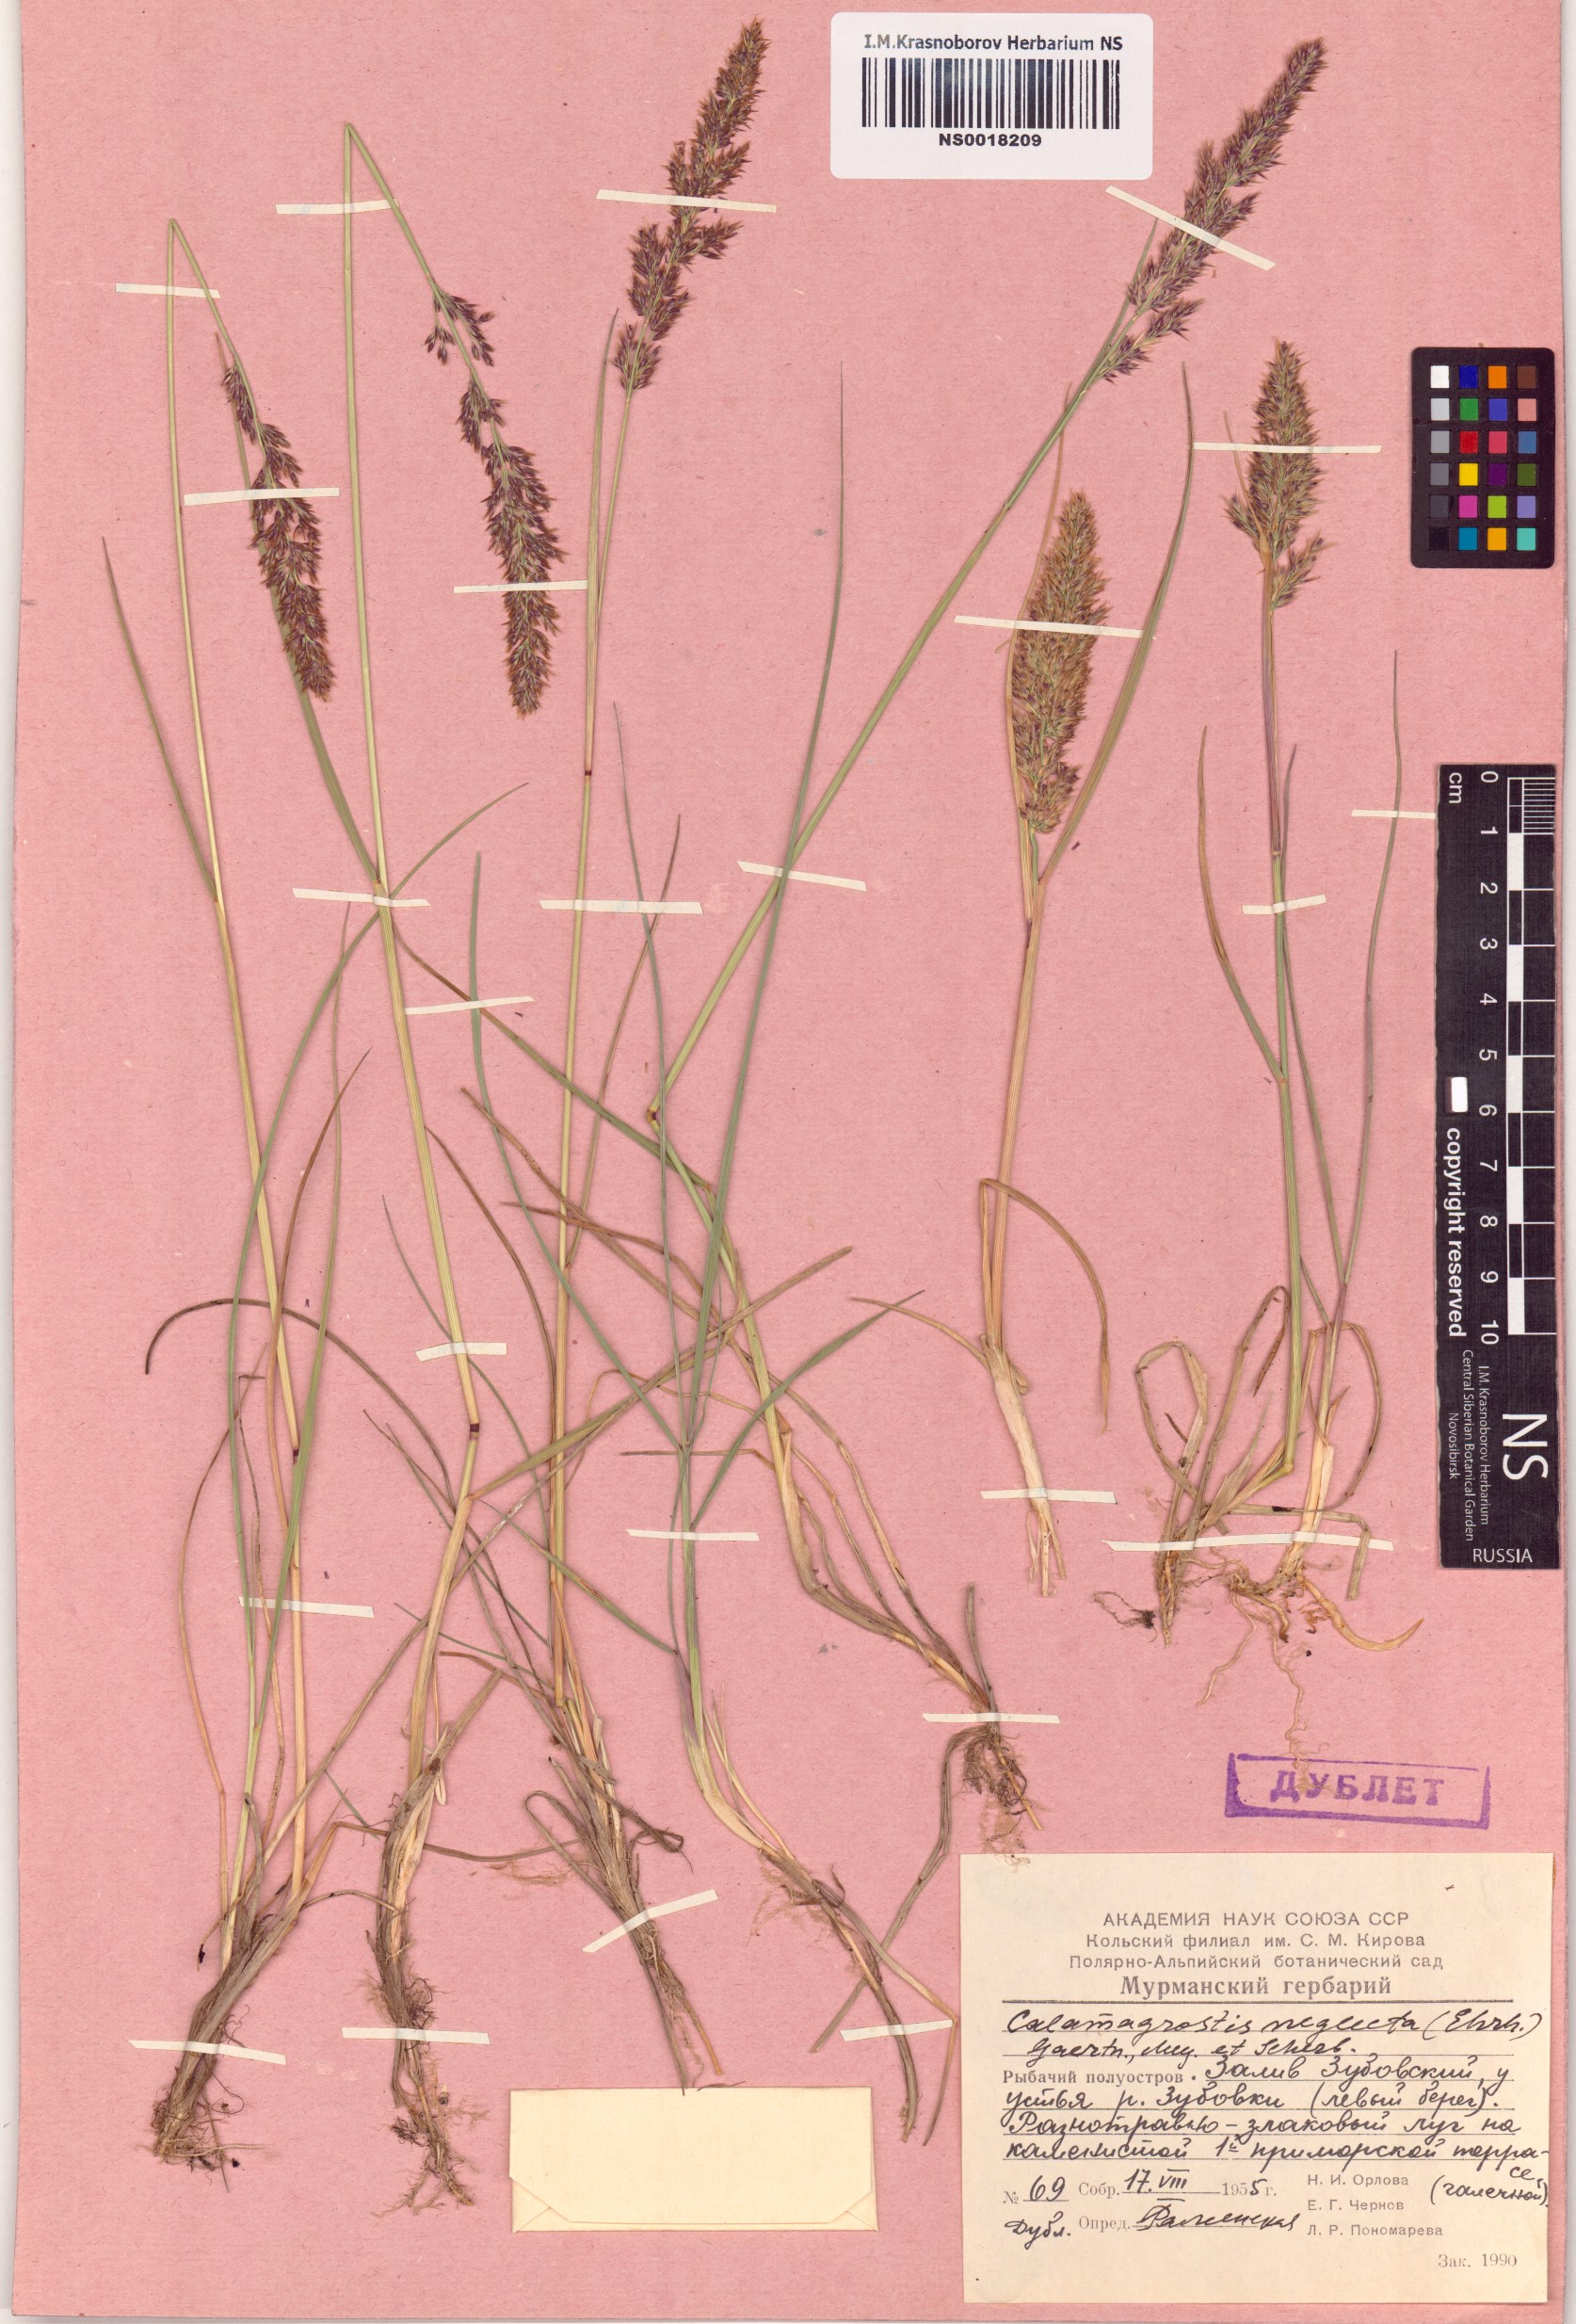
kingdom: Plantae
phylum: Tracheophyta
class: Liliopsida
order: Poales
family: Poaceae
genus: Achnatherum
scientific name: Achnatherum calamagrostis
